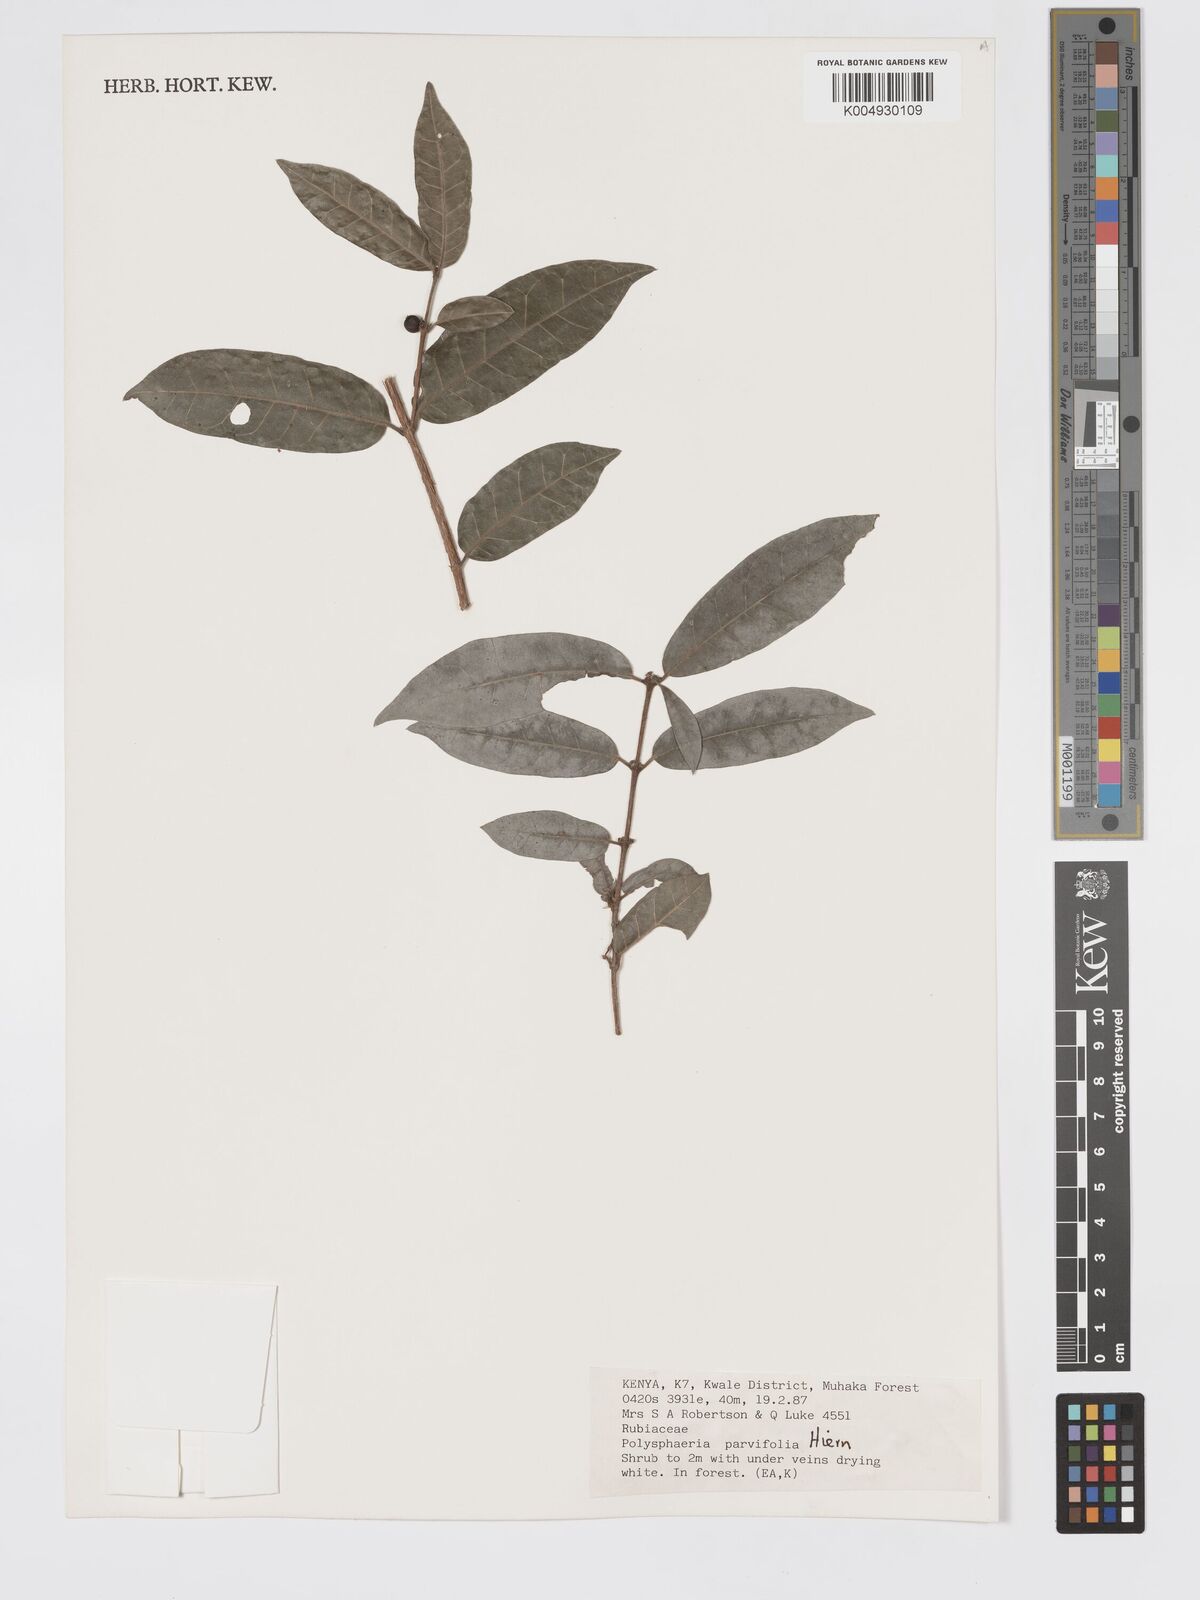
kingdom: Plantae
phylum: Tracheophyta
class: Magnoliopsida
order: Gentianales
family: Rubiaceae
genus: Polysphaeria
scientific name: Polysphaeria parvifolia
